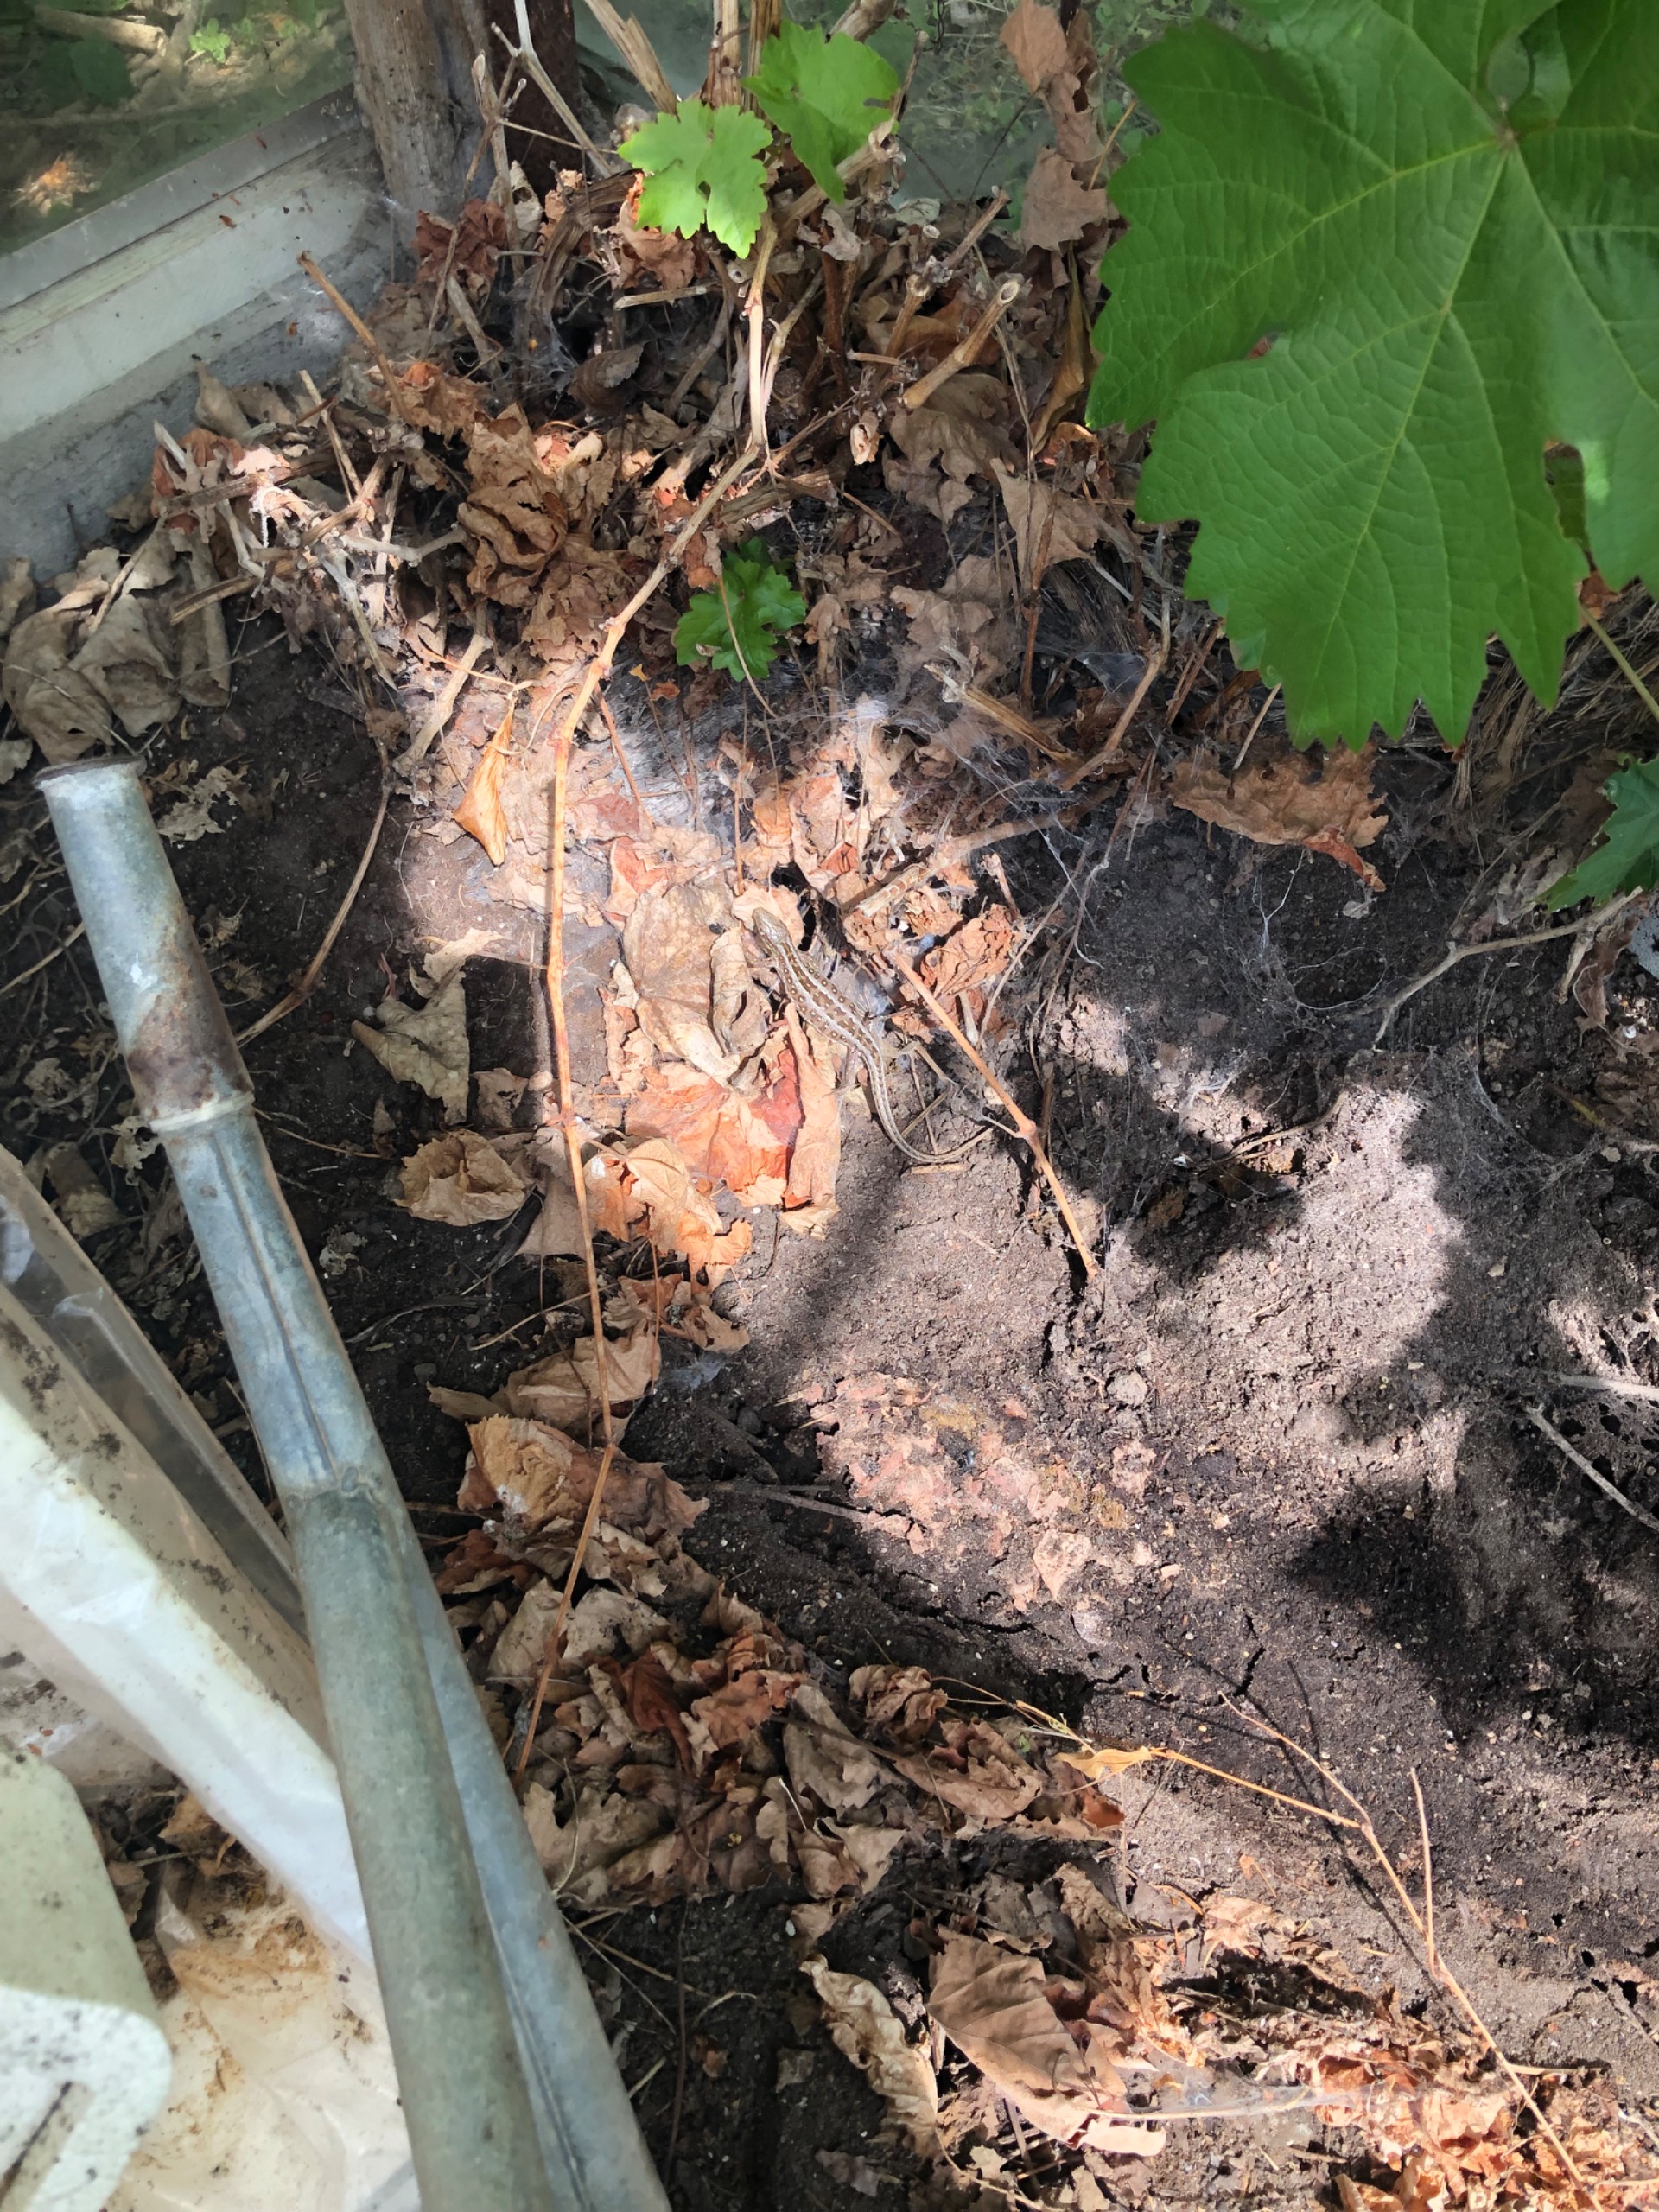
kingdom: Animalia
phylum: Chordata
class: Squamata
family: Lacertidae
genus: Lacerta
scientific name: Lacerta agilis
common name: Markfirben
